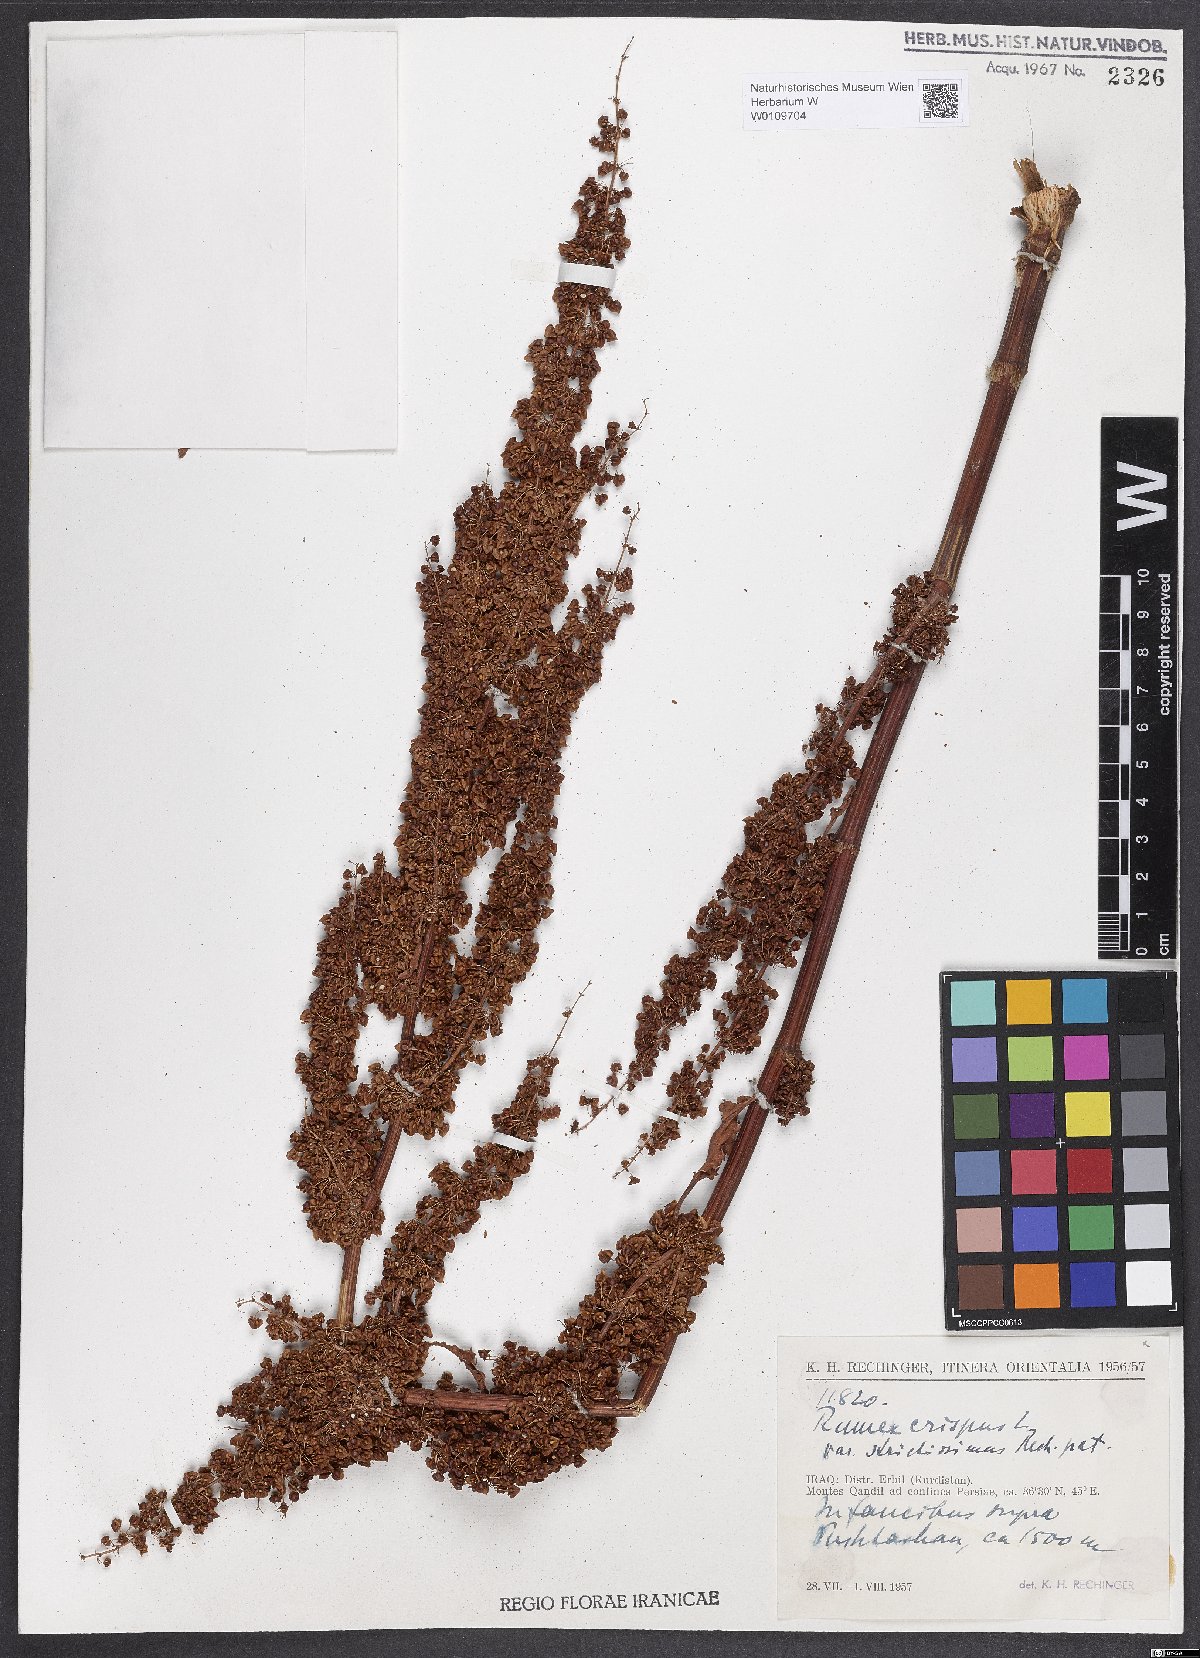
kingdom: Plantae
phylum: Tracheophyta
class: Magnoliopsida
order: Caryophyllales
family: Polygonaceae
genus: Rumex
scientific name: Rumex crispus
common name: Curled dock
